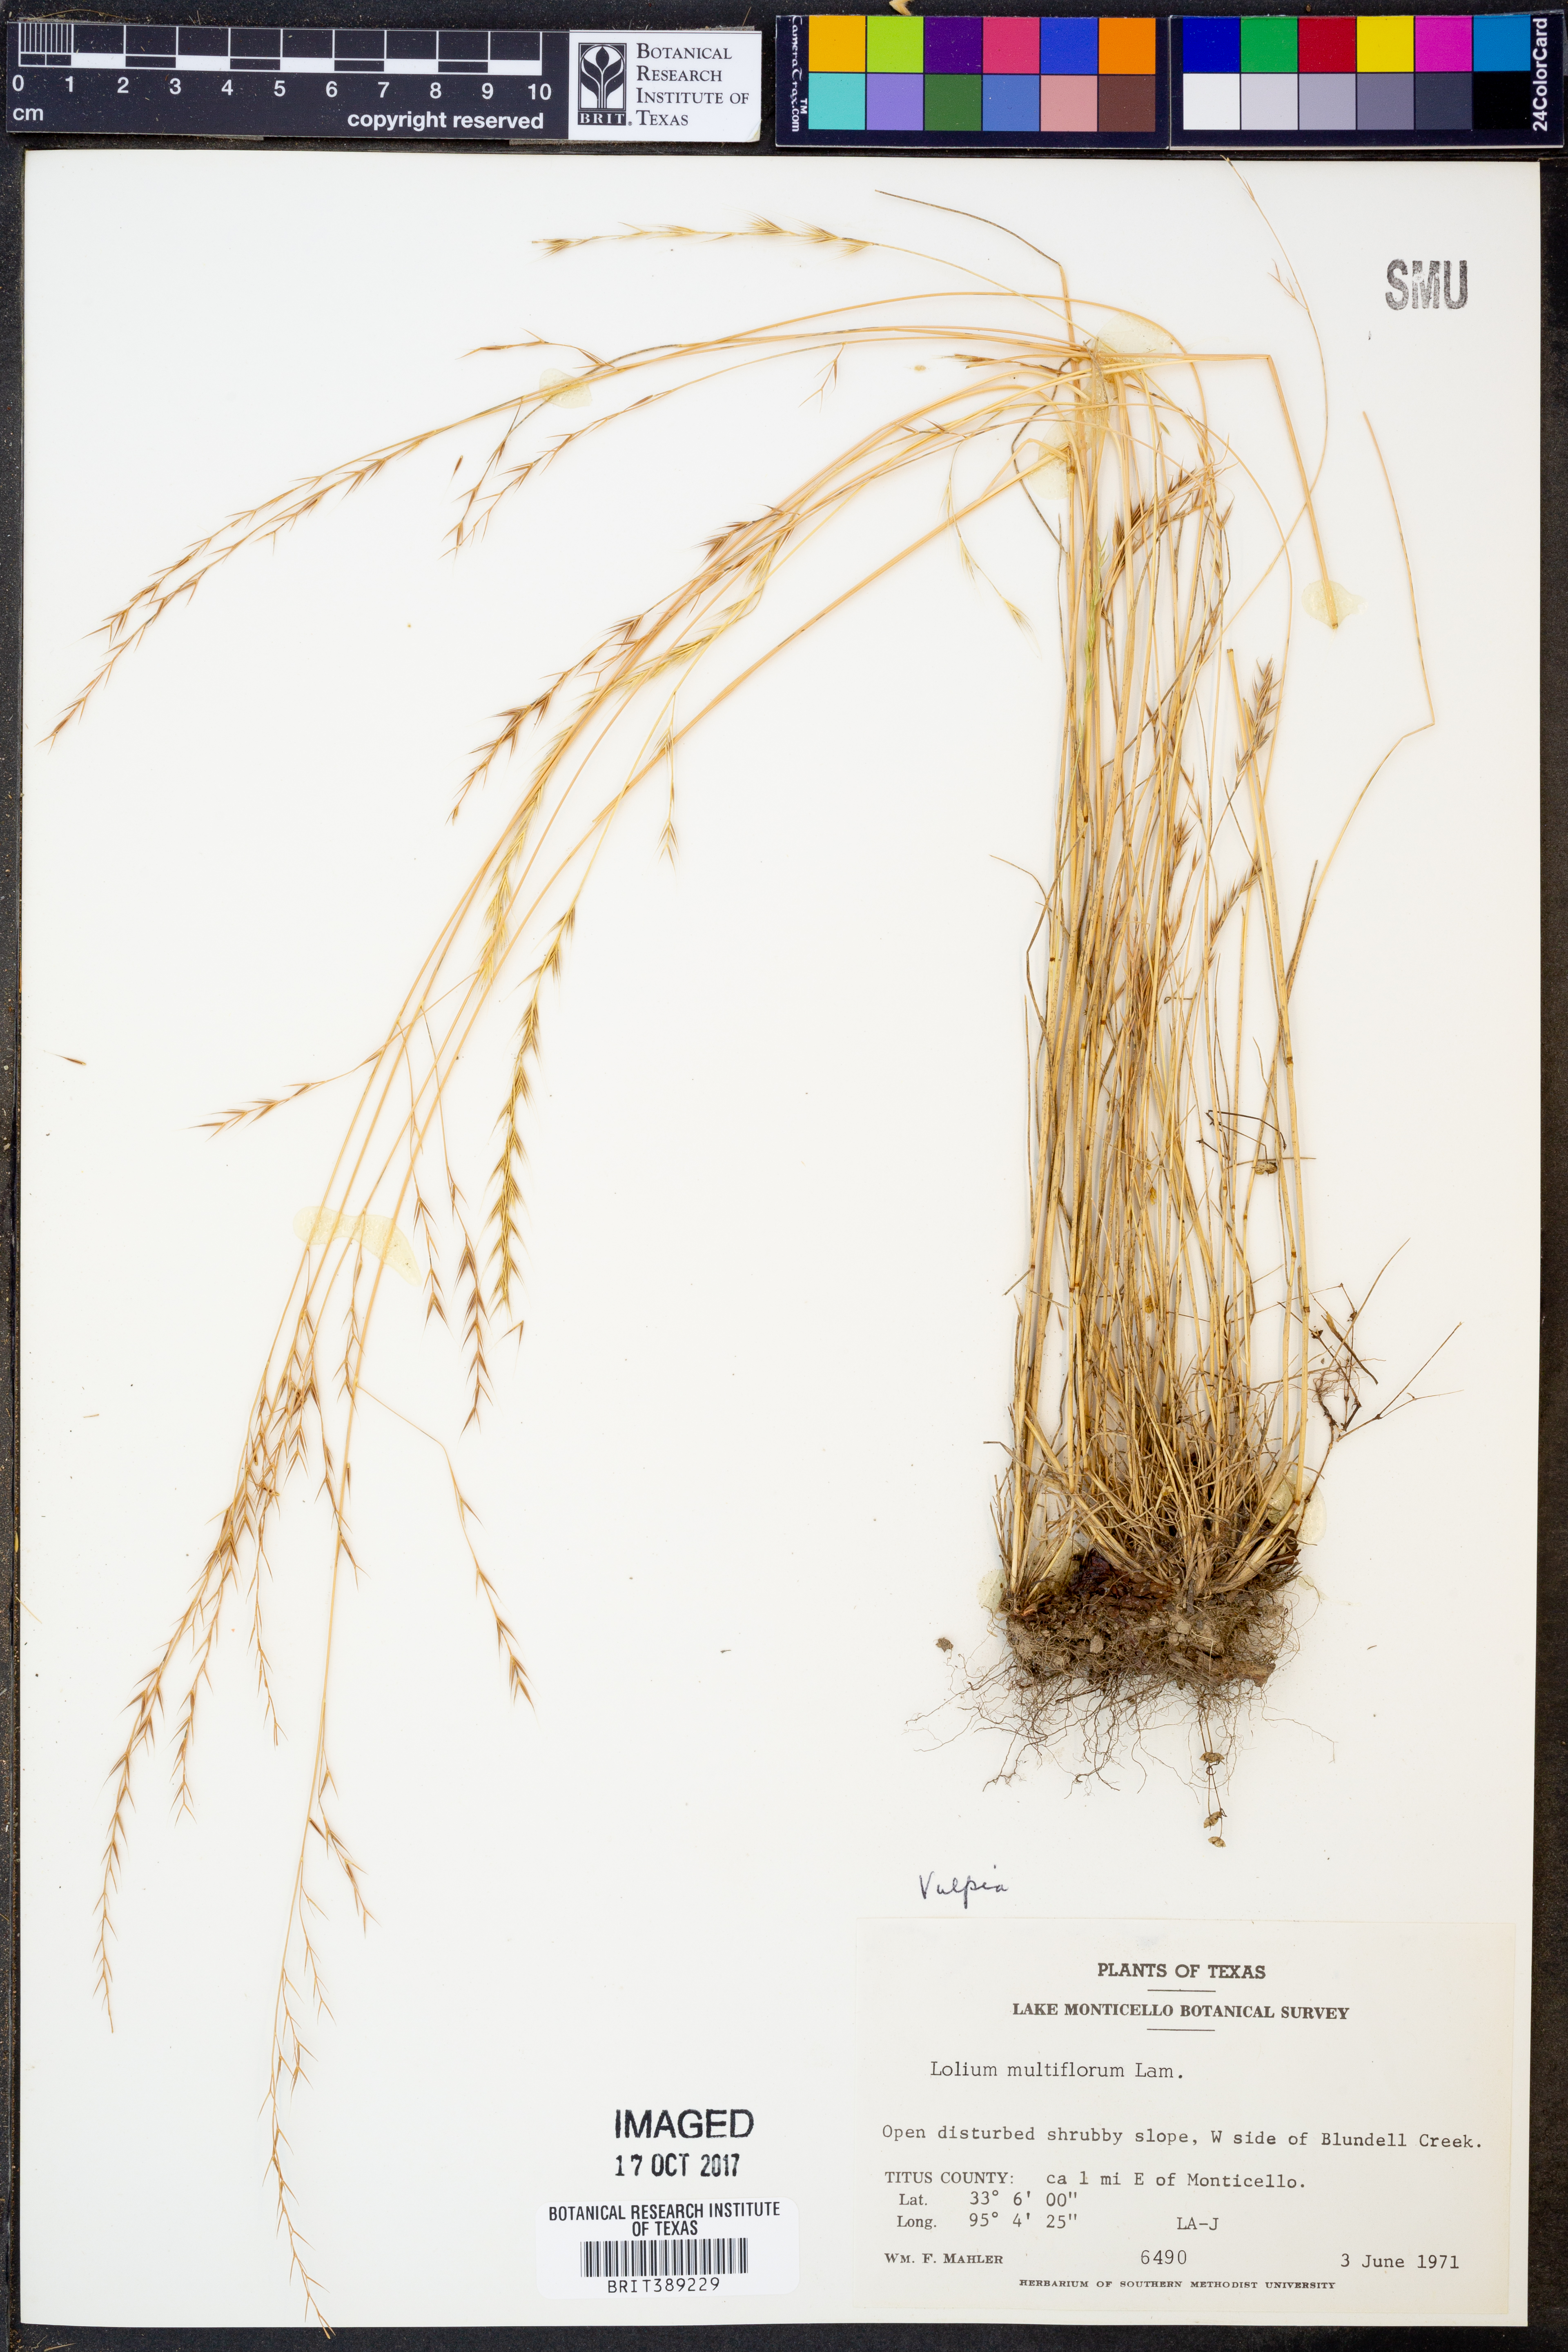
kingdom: Plantae
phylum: Tracheophyta
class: Liliopsida
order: Poales
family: Poaceae
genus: Lolium
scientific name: Lolium multiflorum
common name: Annual ryegrass
